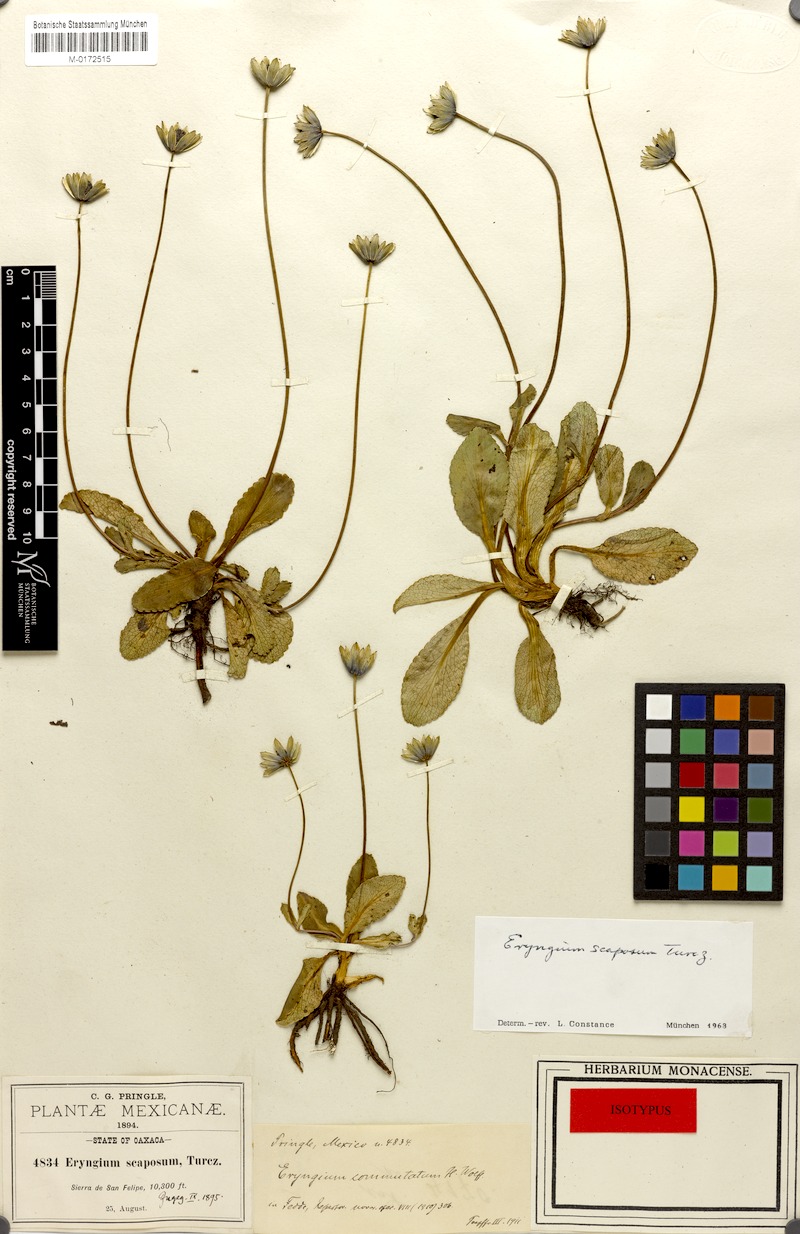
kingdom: Plantae
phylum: Tracheophyta
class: Magnoliopsida
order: Apiales
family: Apiaceae
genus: Eryngium
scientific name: Eryngium scaposum
